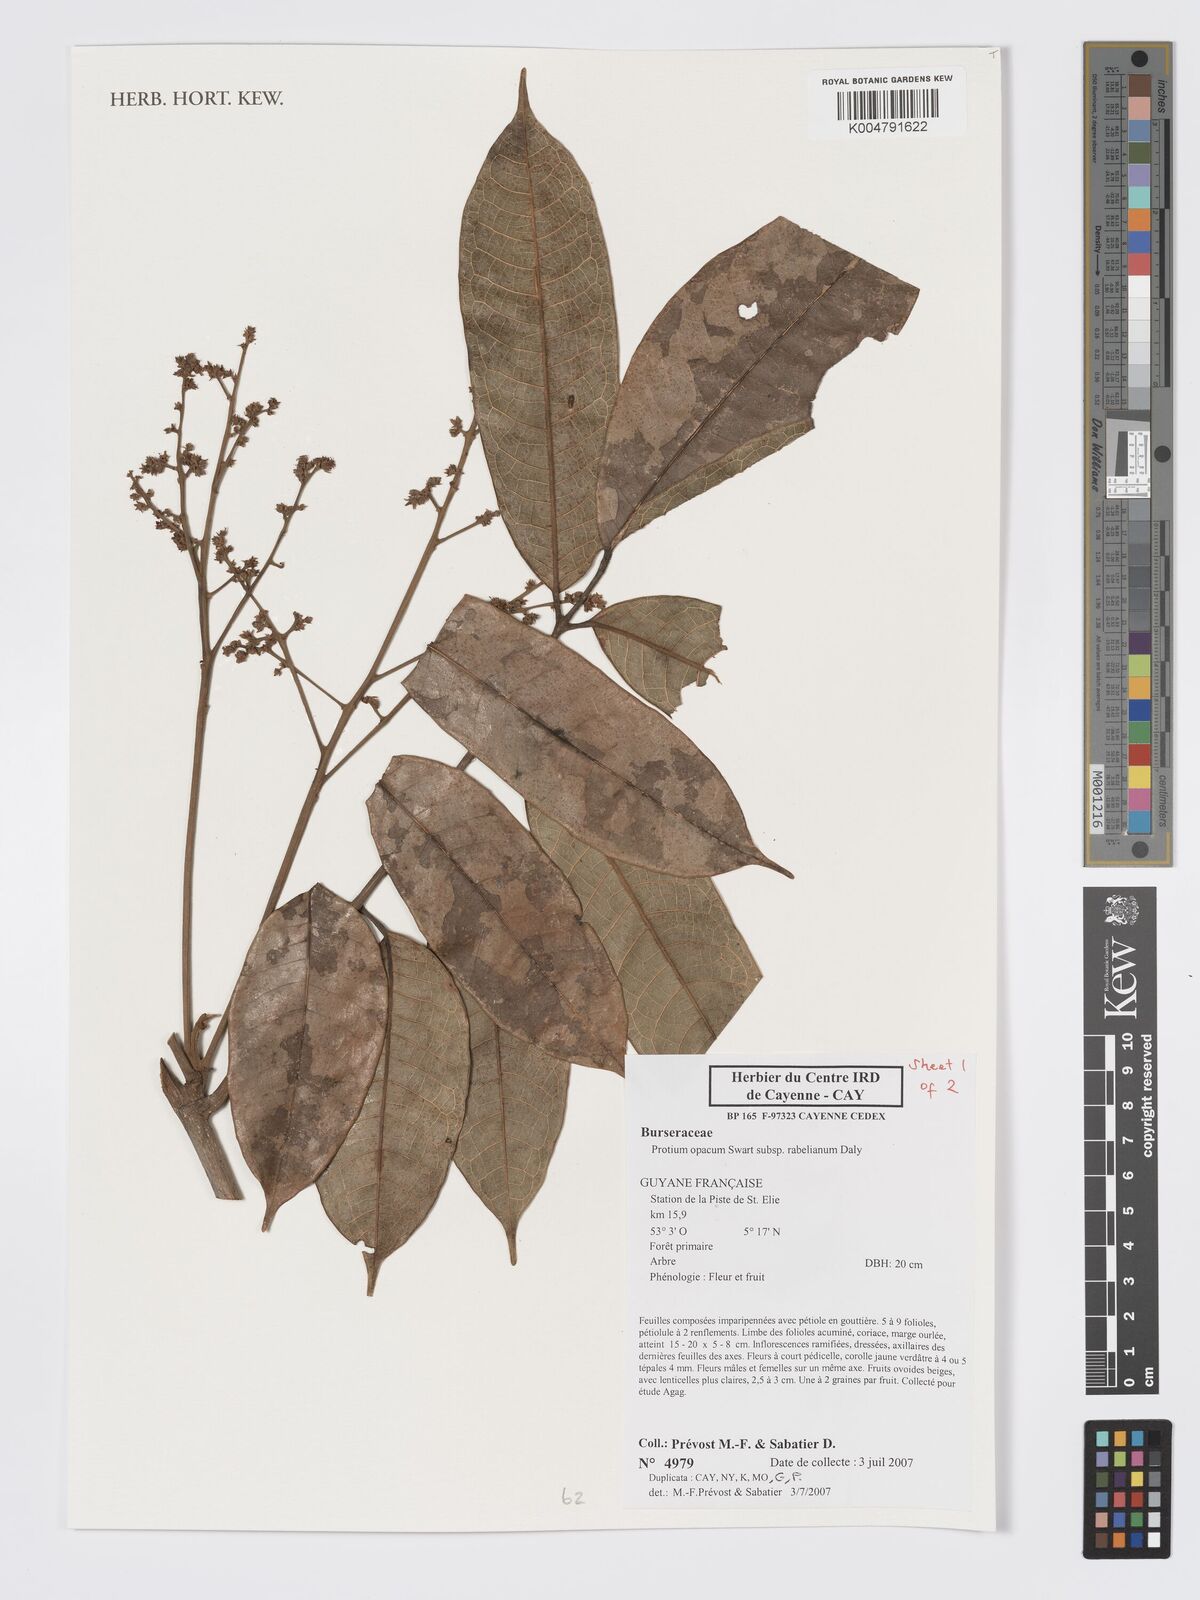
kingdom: Plantae
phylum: Tracheophyta
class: Magnoliopsida
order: Sapindales
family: Burseraceae
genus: Protium
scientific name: Protium opacum
